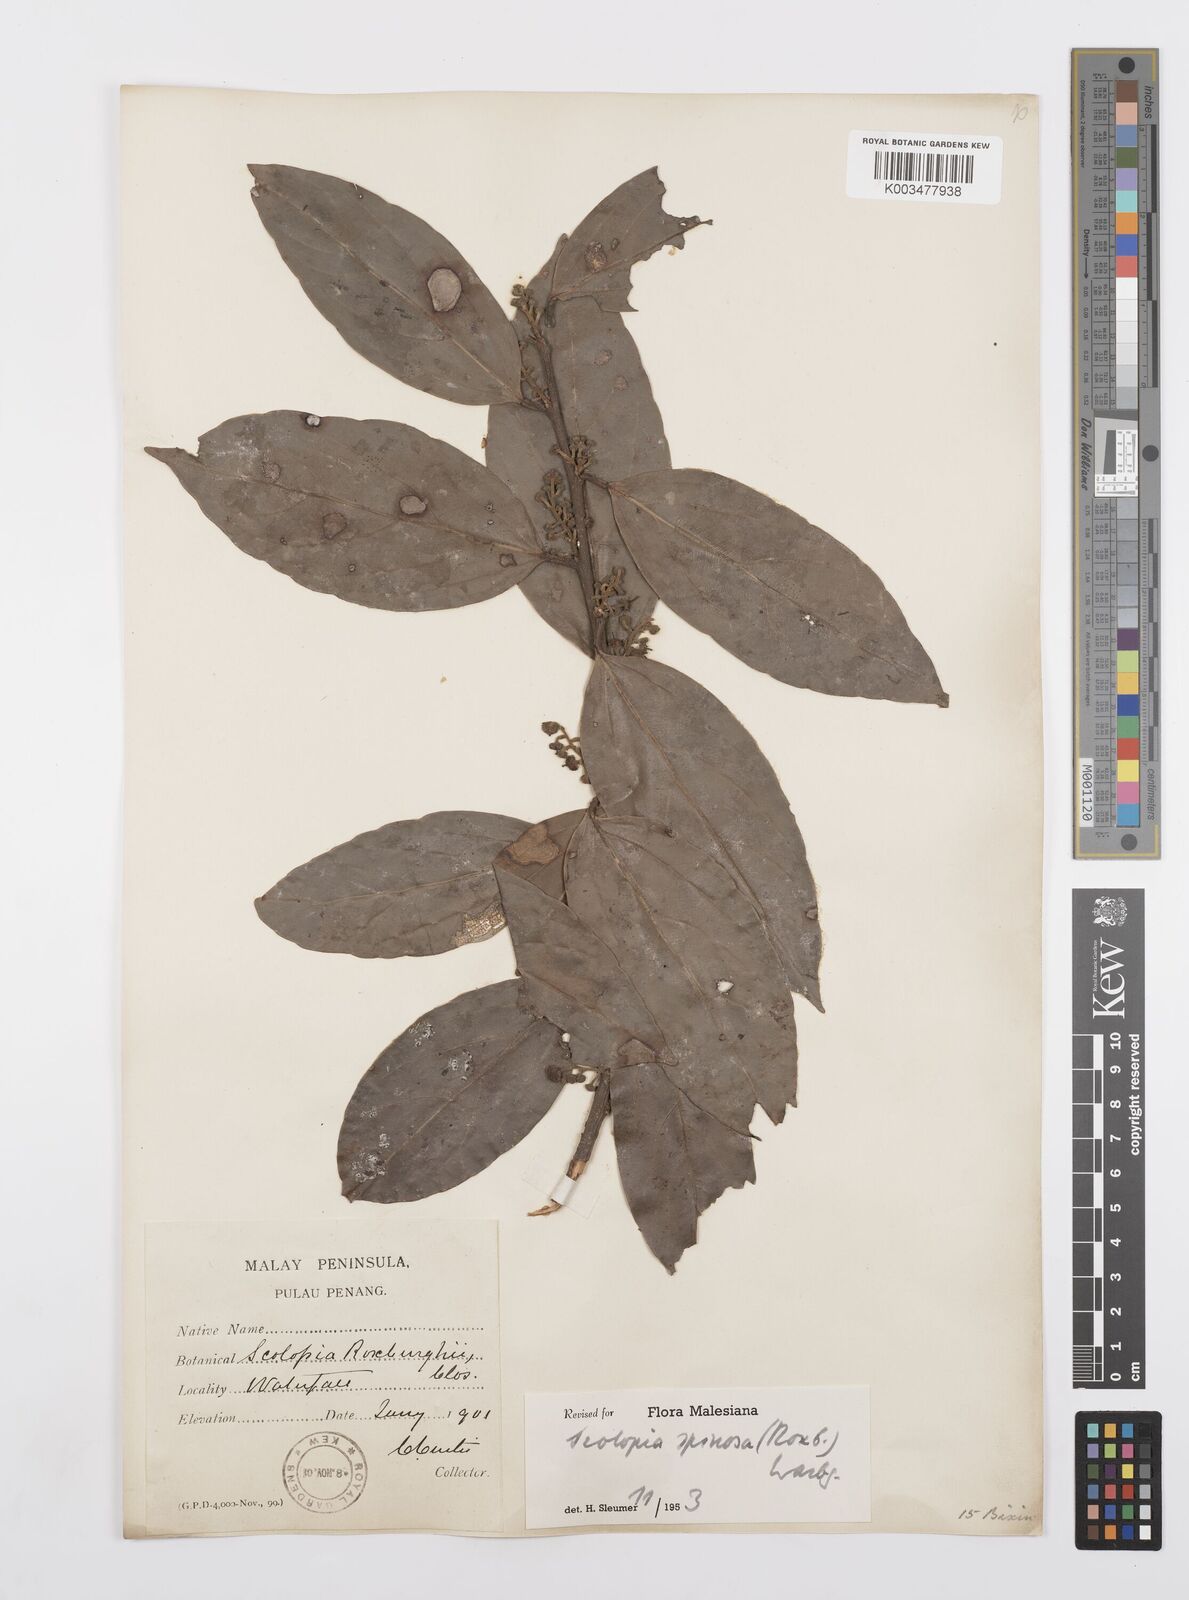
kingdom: Plantae
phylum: Tracheophyta
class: Magnoliopsida
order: Malpighiales
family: Salicaceae
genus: Scolopia
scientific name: Scolopia spinosa
